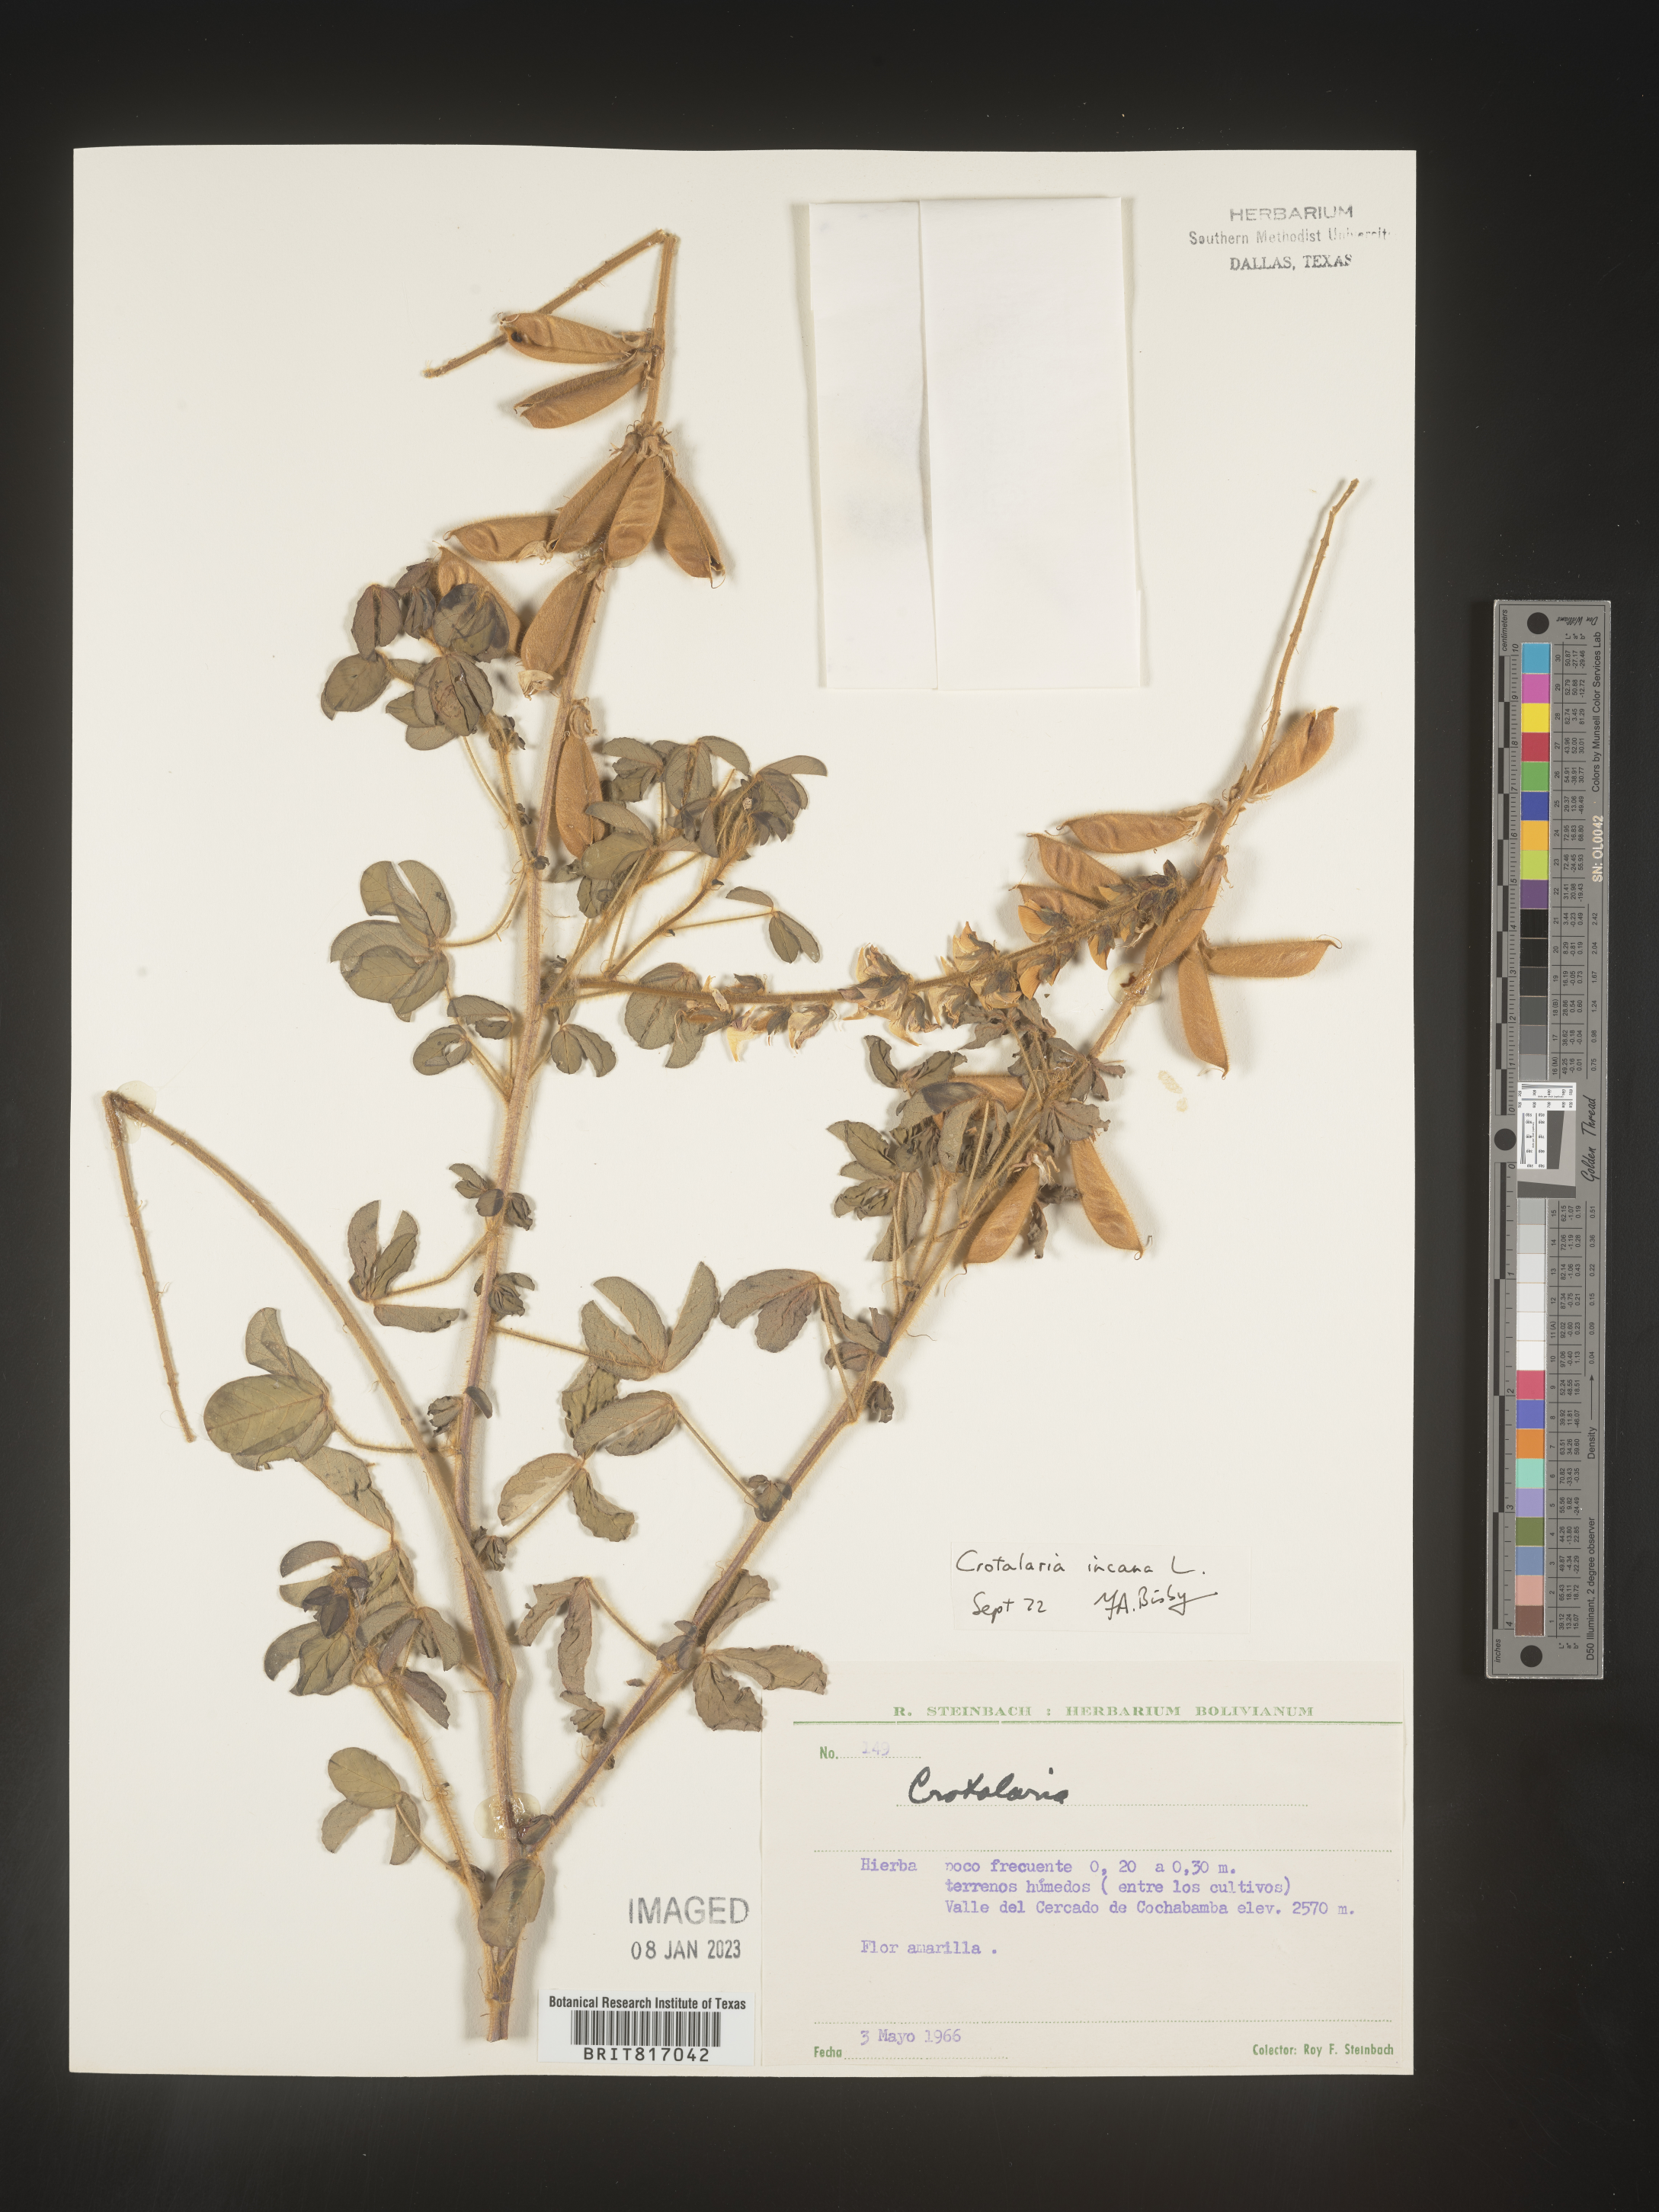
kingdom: Plantae
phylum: Tracheophyta
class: Magnoliopsida
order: Fabales
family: Fabaceae
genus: Crotalaria
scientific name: Crotalaria
